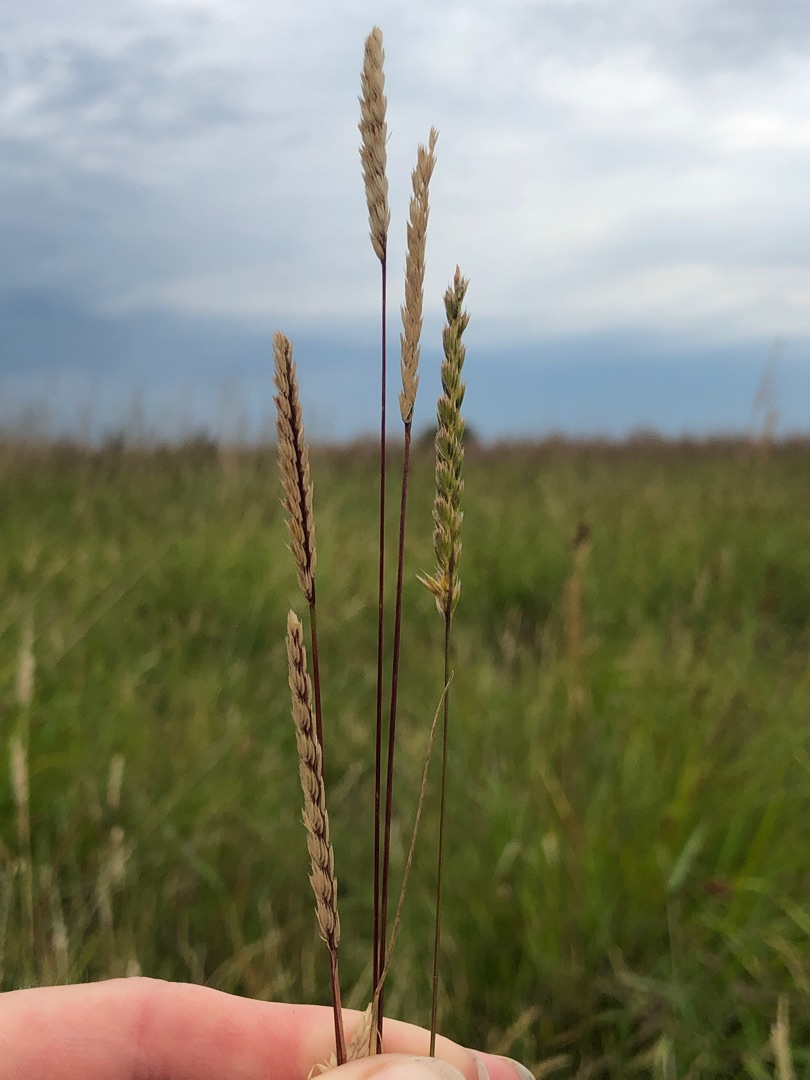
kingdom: Plantae
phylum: Tracheophyta
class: Liliopsida
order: Poales
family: Poaceae
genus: Cynosurus
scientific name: Cynosurus cristatus
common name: Kamgræs
